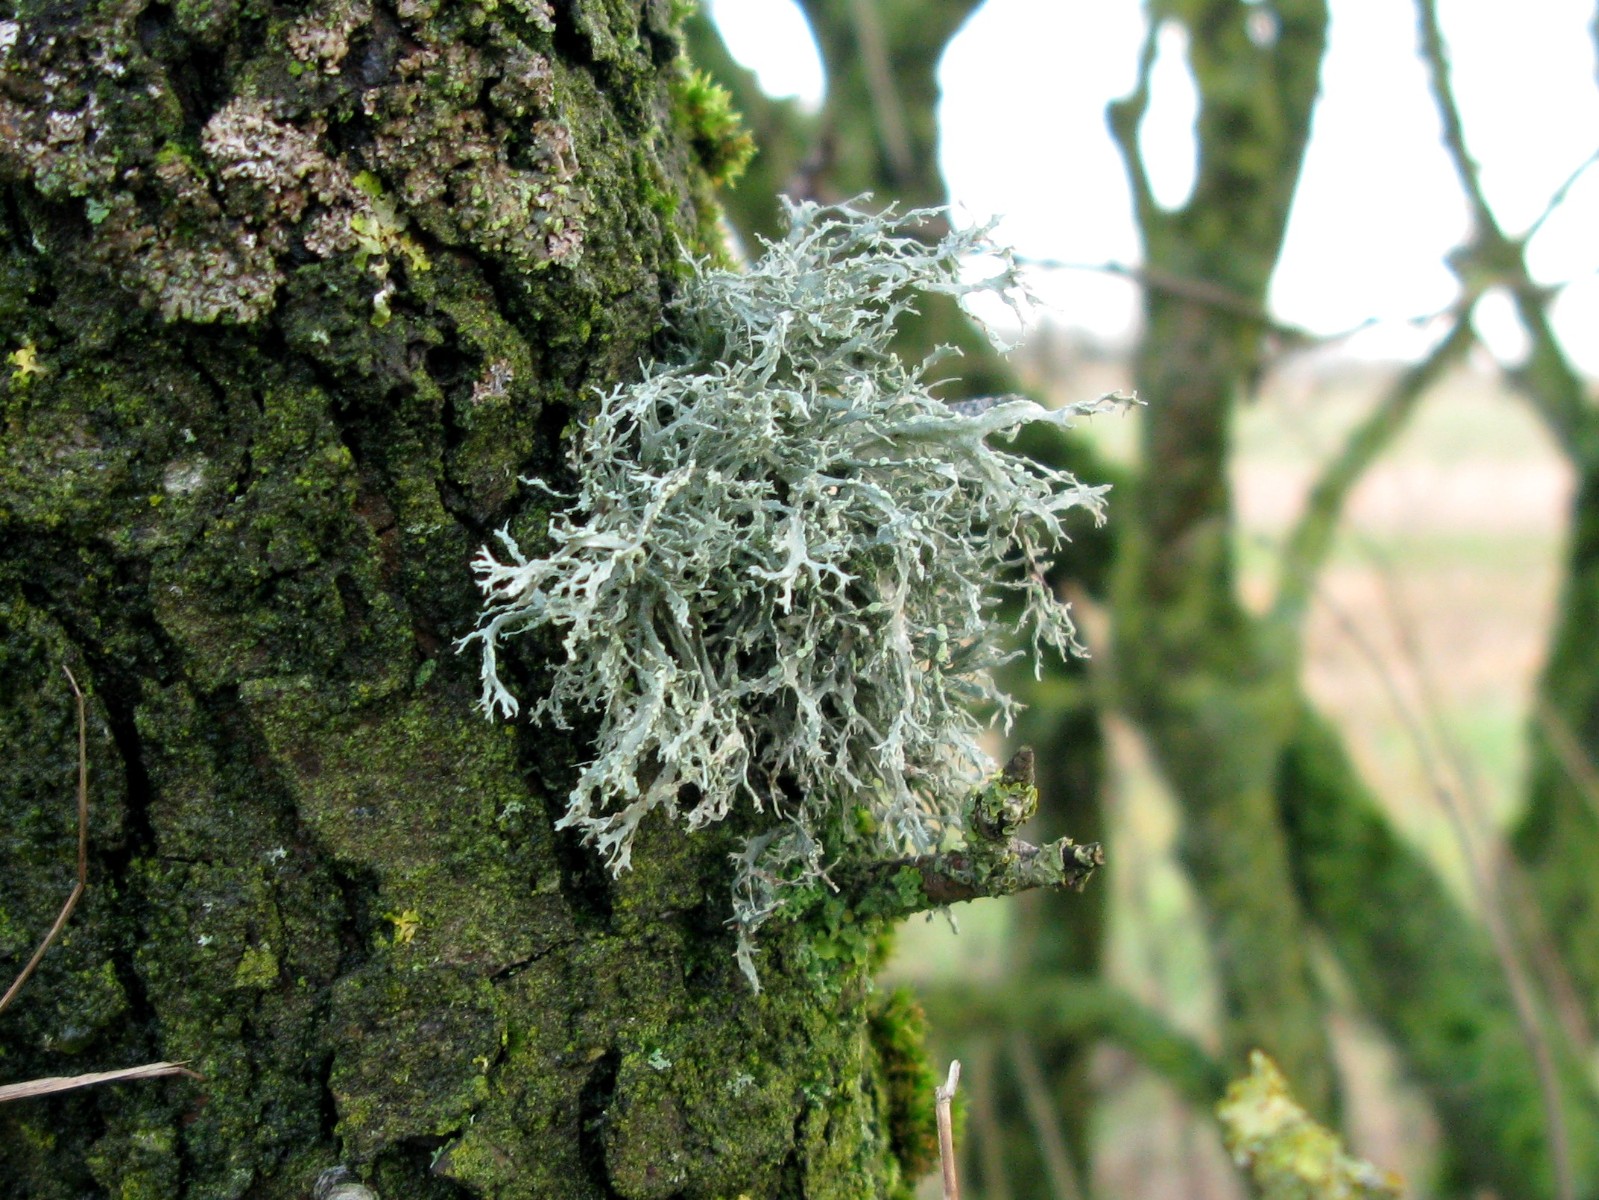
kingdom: Fungi
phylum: Ascomycota
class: Lecanoromycetes
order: Lecanorales
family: Ramalinaceae
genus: Ramalina
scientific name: Ramalina farinacea
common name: melet grenlav
